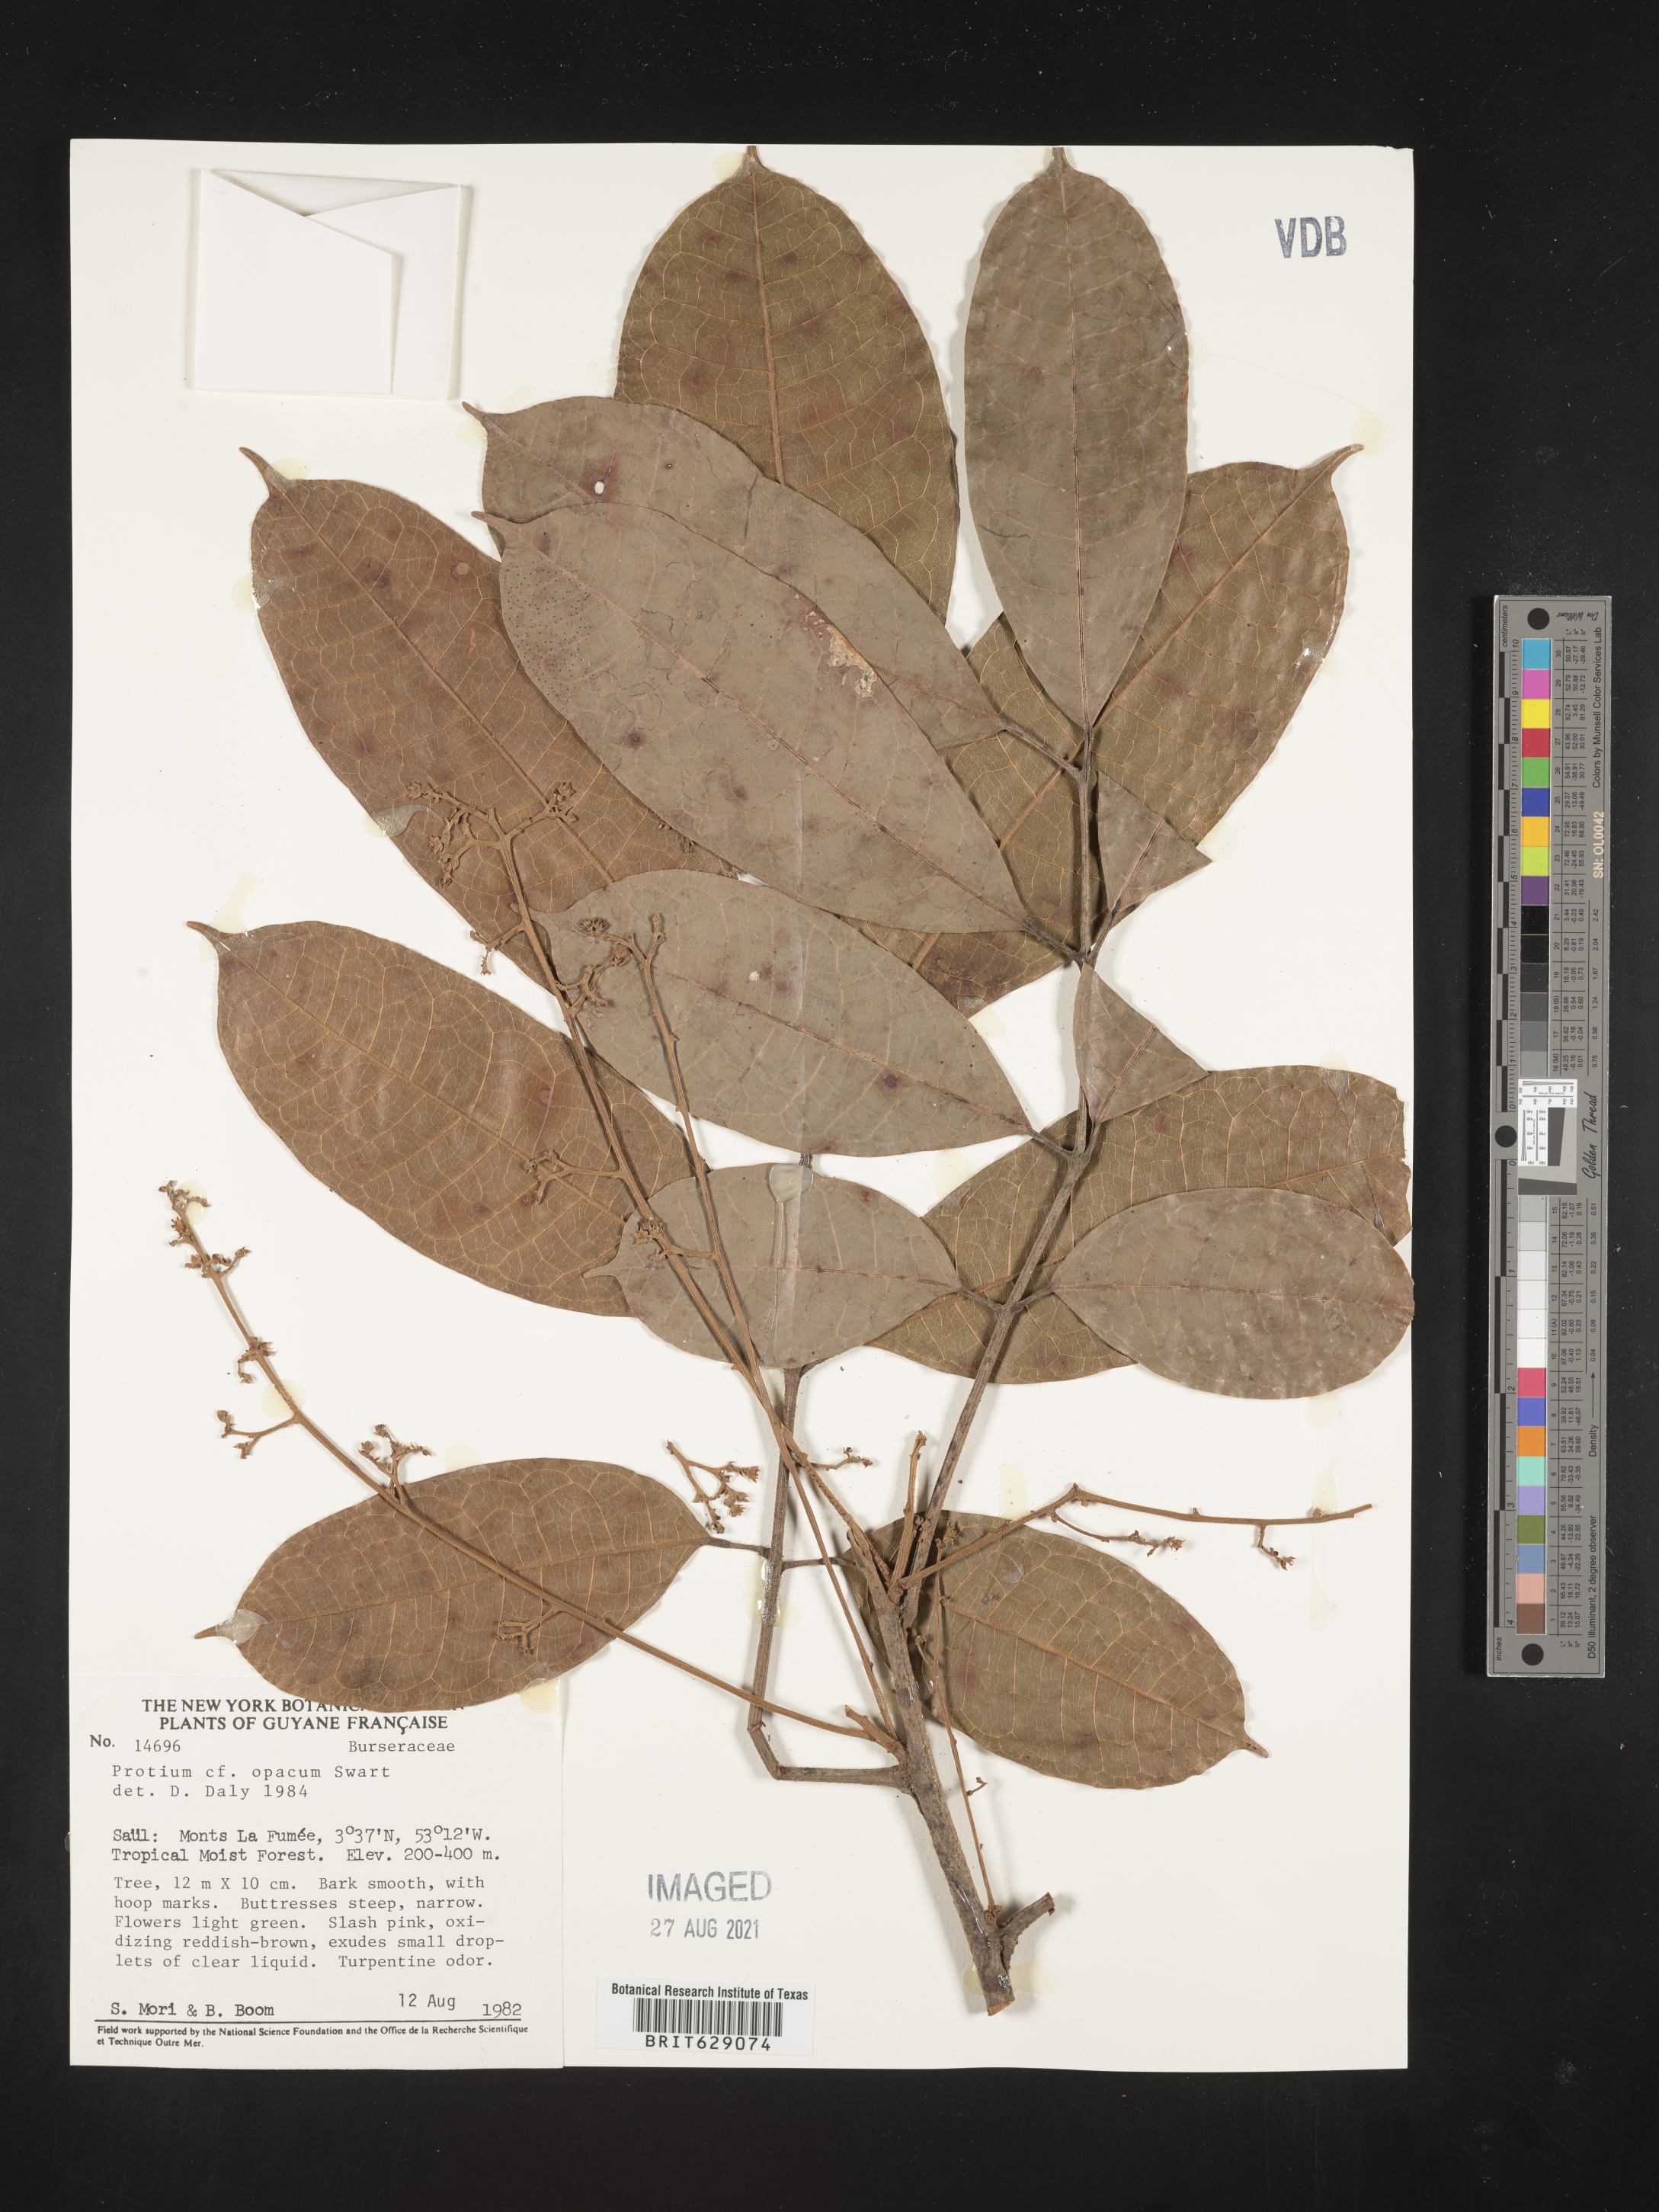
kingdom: Plantae
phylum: Tracheophyta
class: Magnoliopsida
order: Sapindales
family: Burseraceae
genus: Protium
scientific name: Protium opacum
